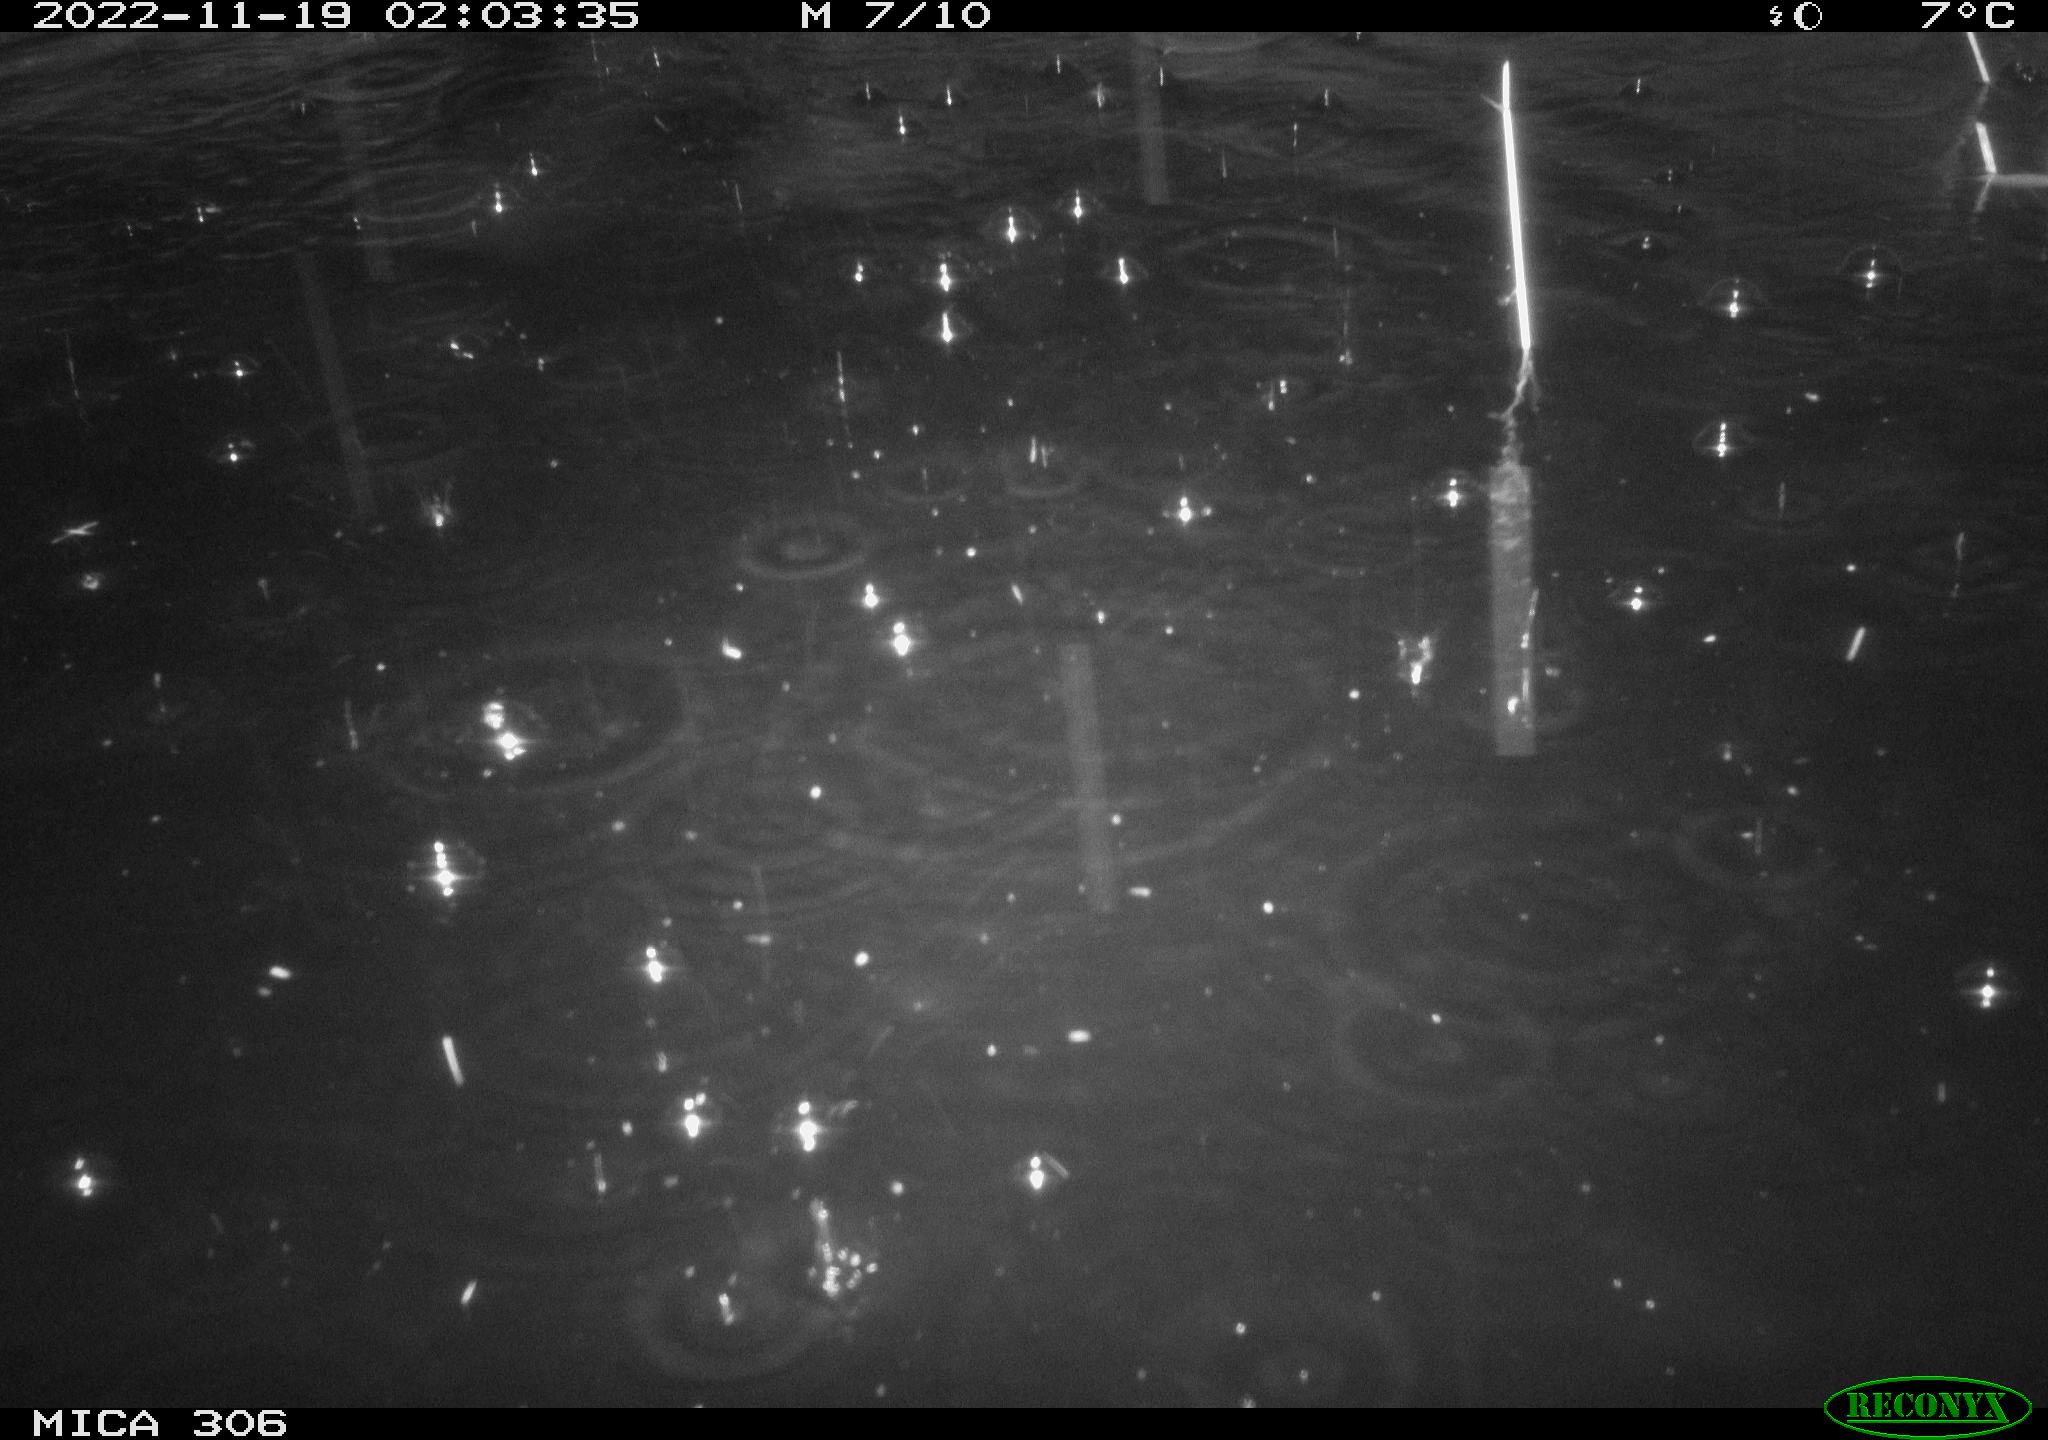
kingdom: Animalia
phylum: Chordata
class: Mammalia
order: Rodentia
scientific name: Rodentia
